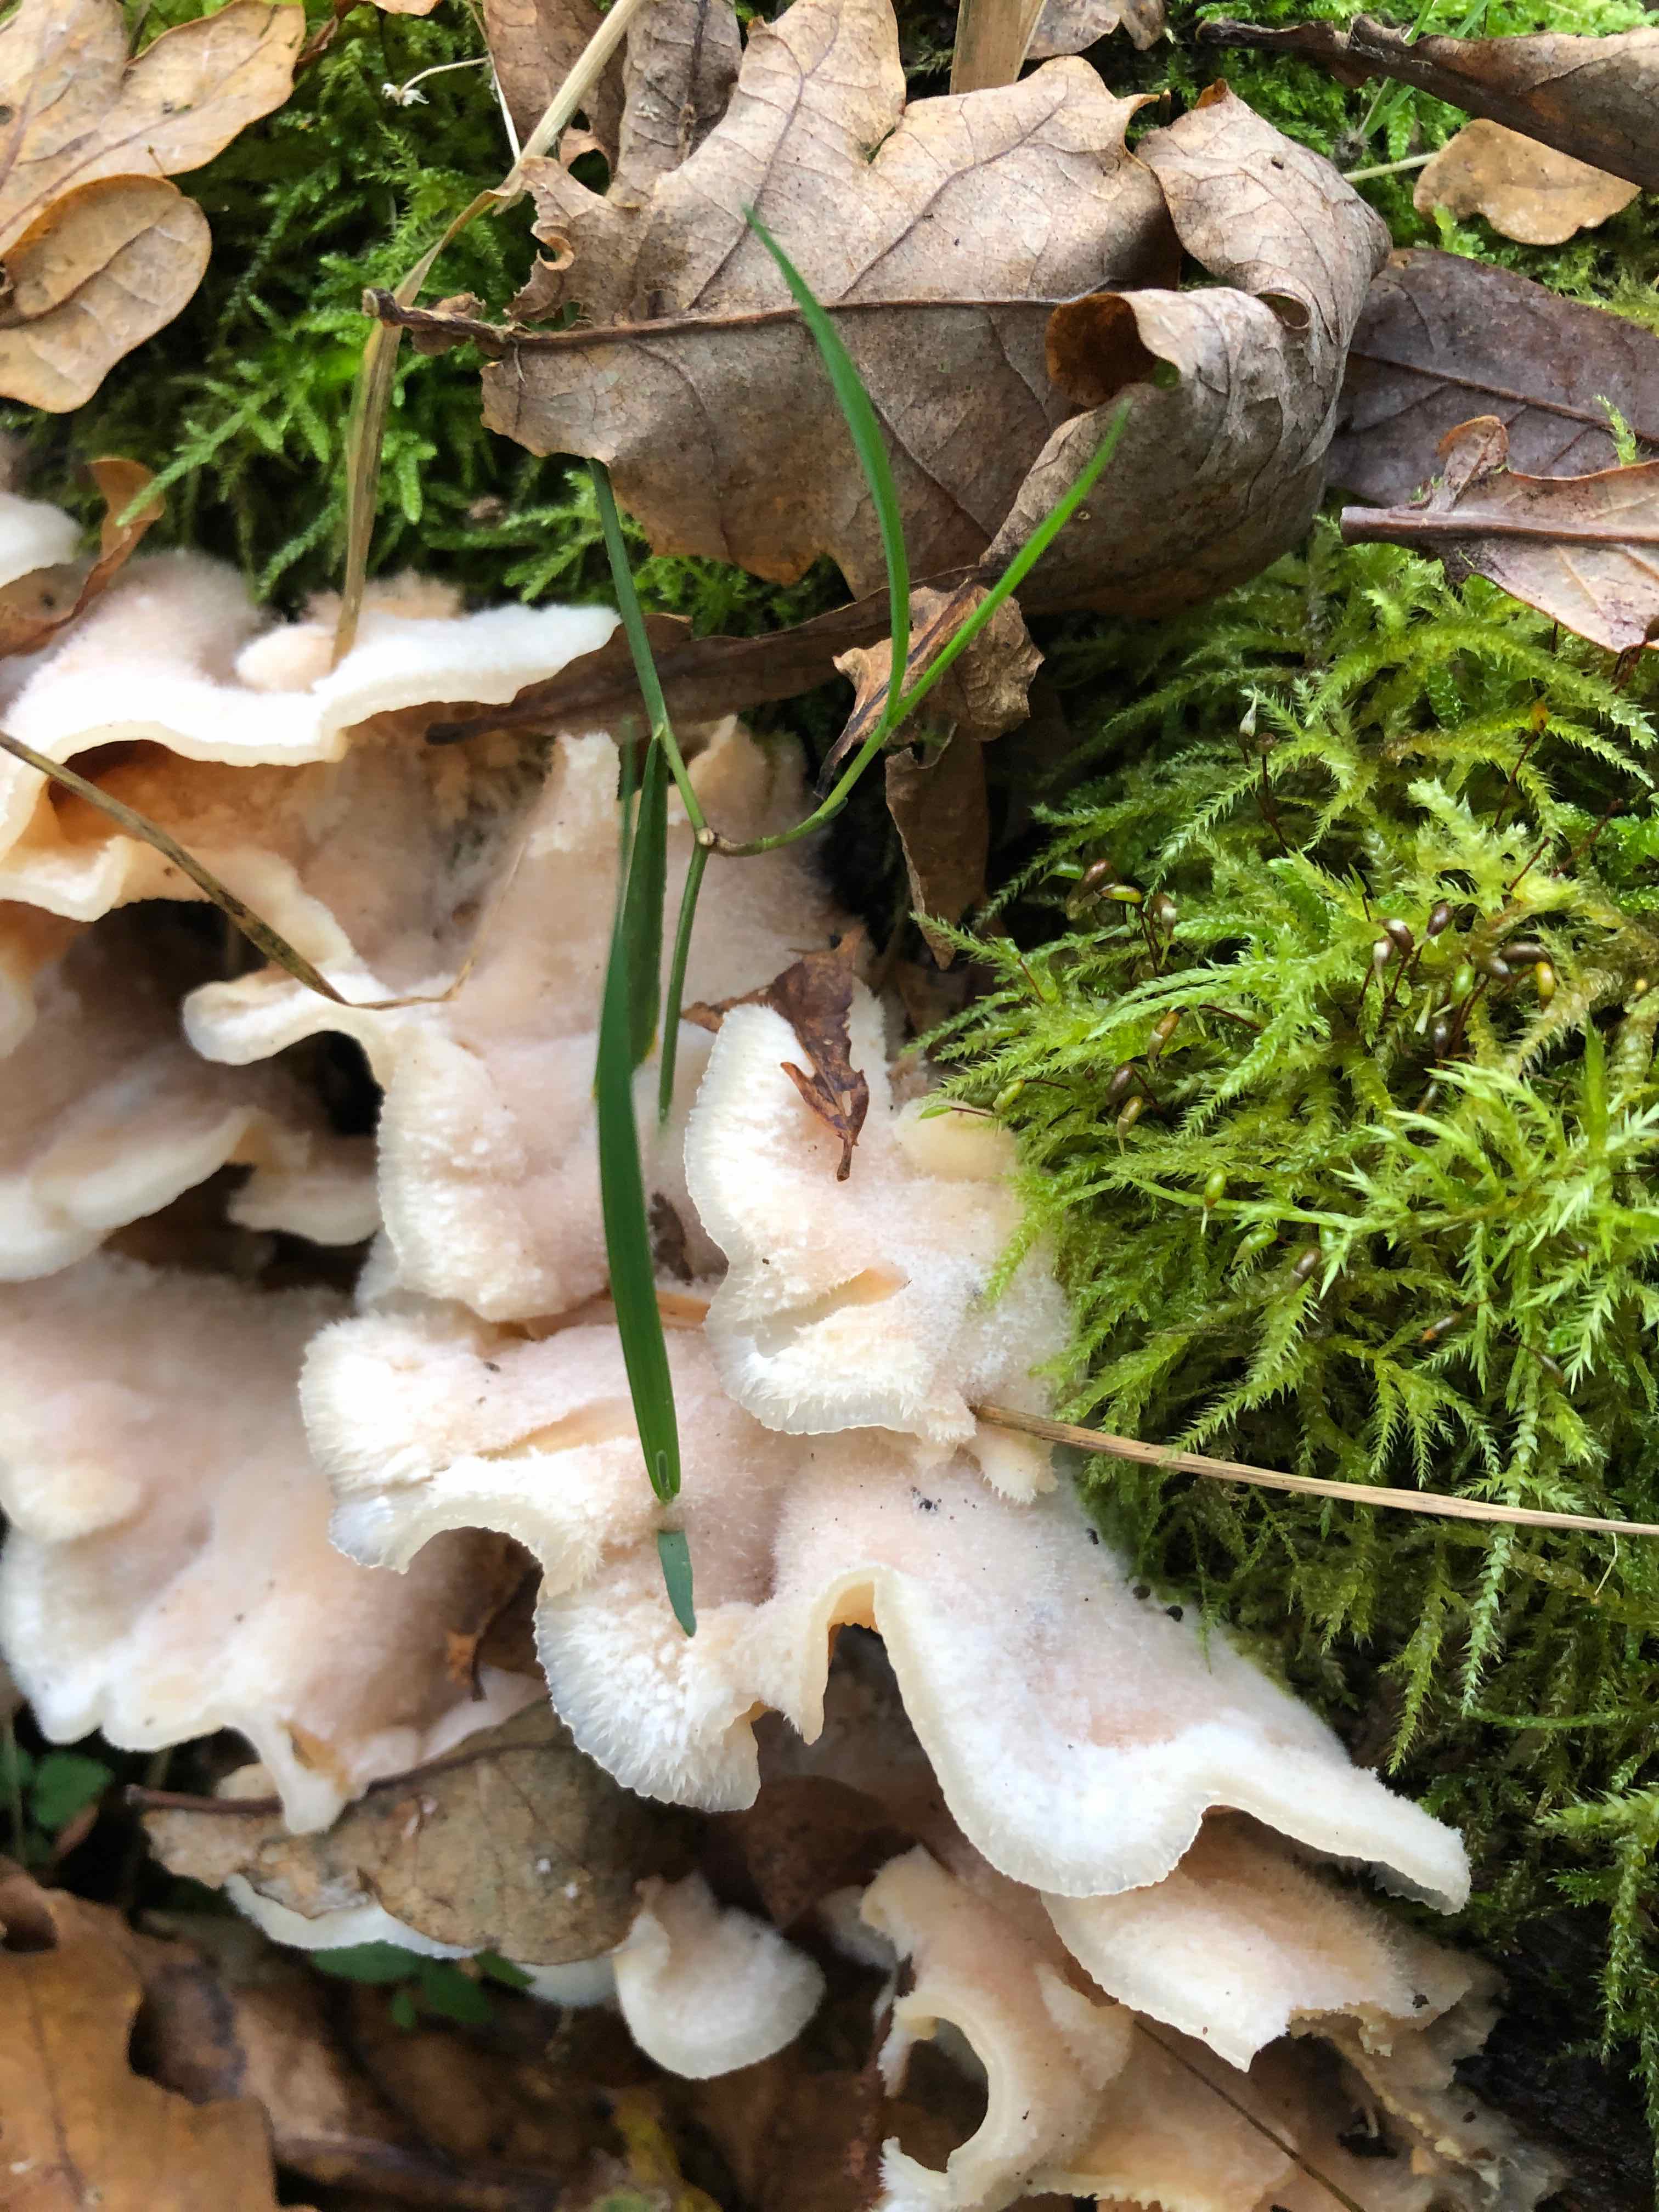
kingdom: Fungi
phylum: Basidiomycota
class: Agaricomycetes
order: Polyporales
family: Meruliaceae
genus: Phlebia
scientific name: Phlebia tremellosa
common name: bævrende åresvamp
